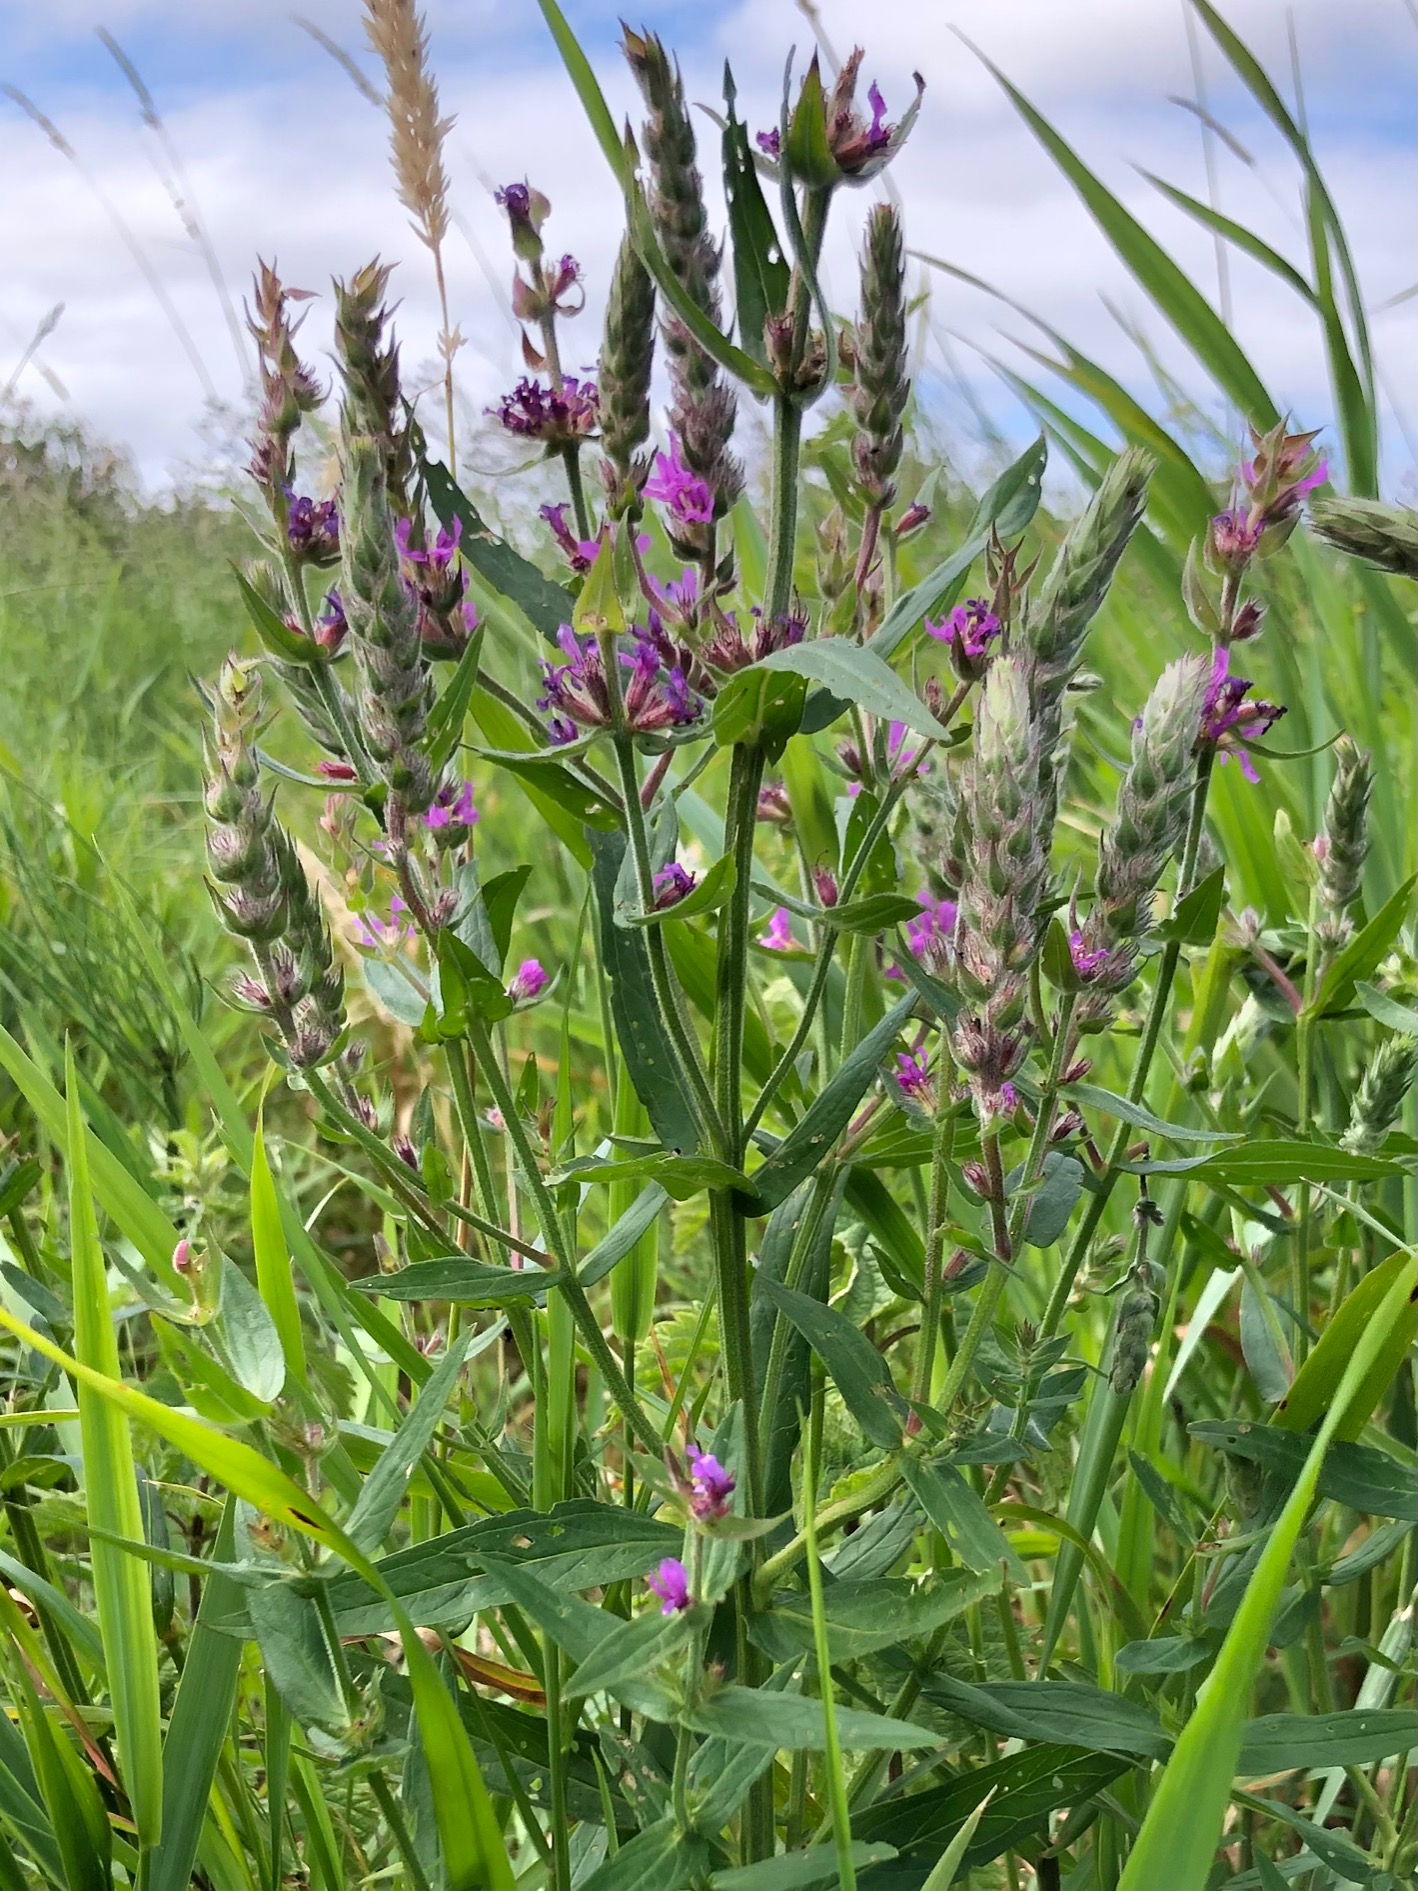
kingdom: Plantae
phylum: Tracheophyta
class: Magnoliopsida
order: Myrtales
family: Lythraceae
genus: Lythrum
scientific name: Lythrum salicaria
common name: Kattehale
